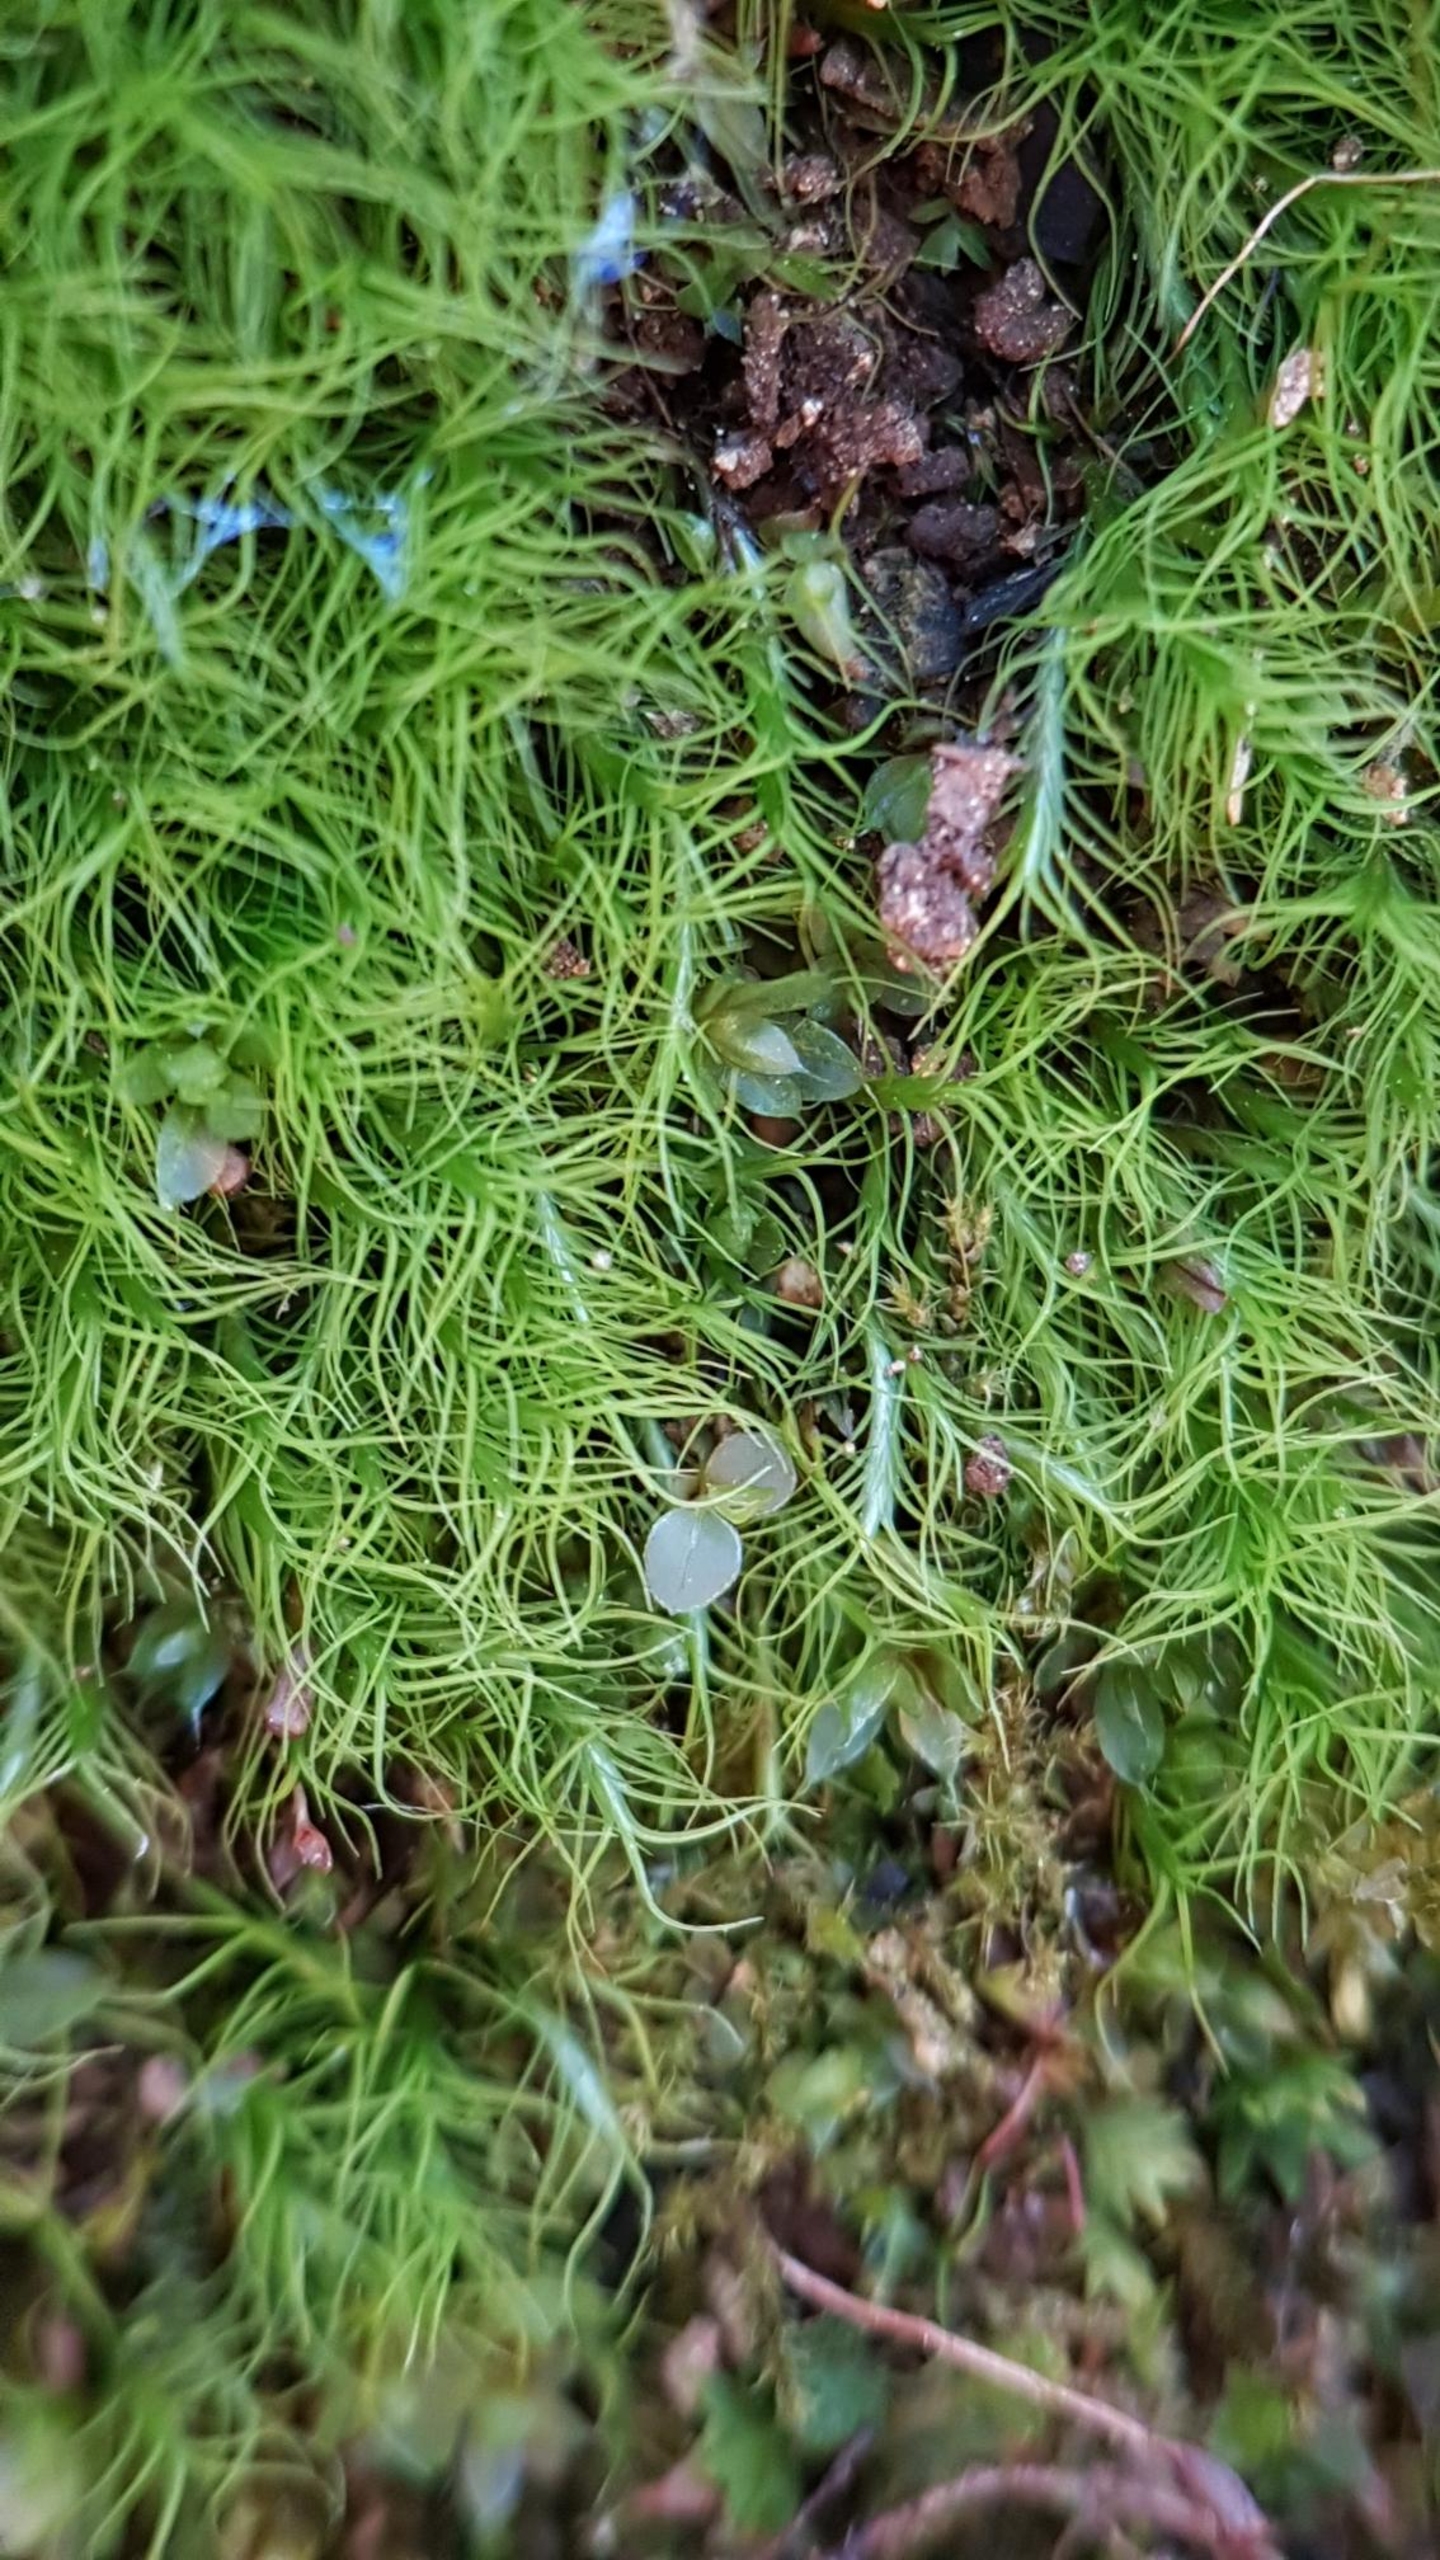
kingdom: Plantae
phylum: Bryophyta
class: Bryopsida
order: Scouleriales
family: Distichiaceae
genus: Distichium
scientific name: Distichium capillaceum
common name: Ret toradsmos
